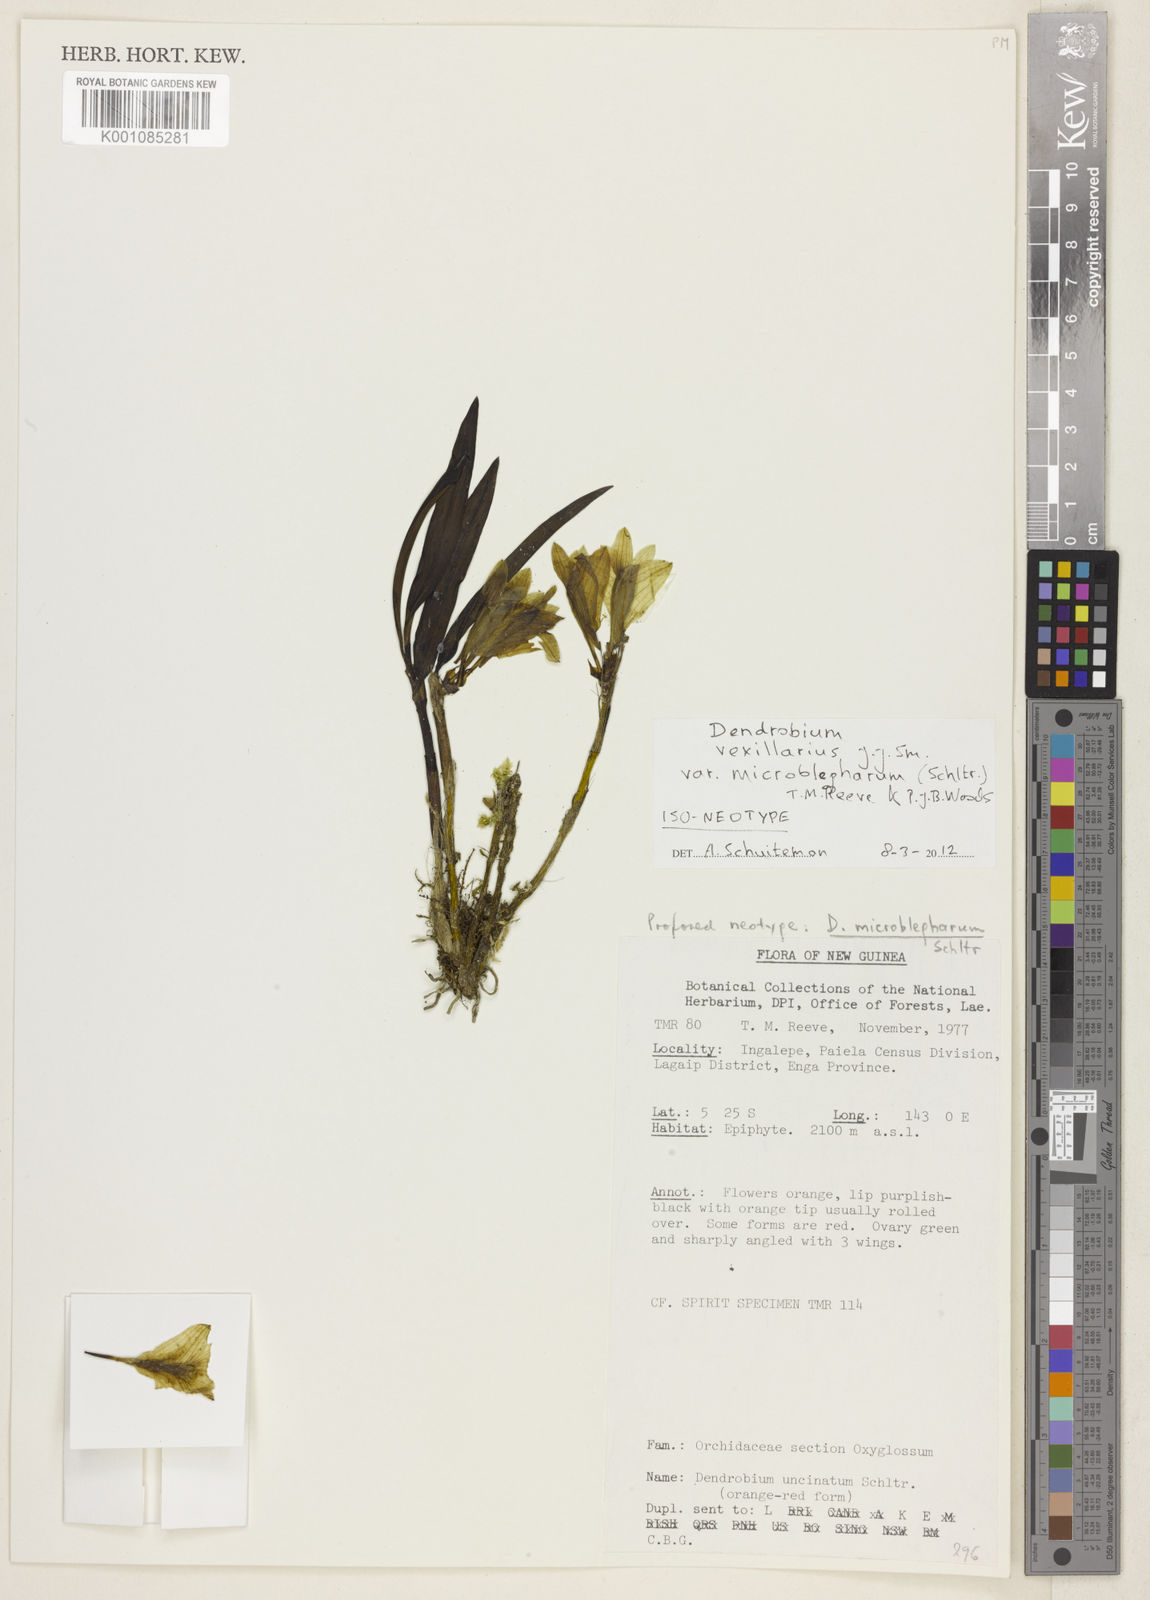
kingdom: Plantae
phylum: Tracheophyta
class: Liliopsida
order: Asparagales
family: Orchidaceae
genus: Dendrobium
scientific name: Dendrobium vexillarius
